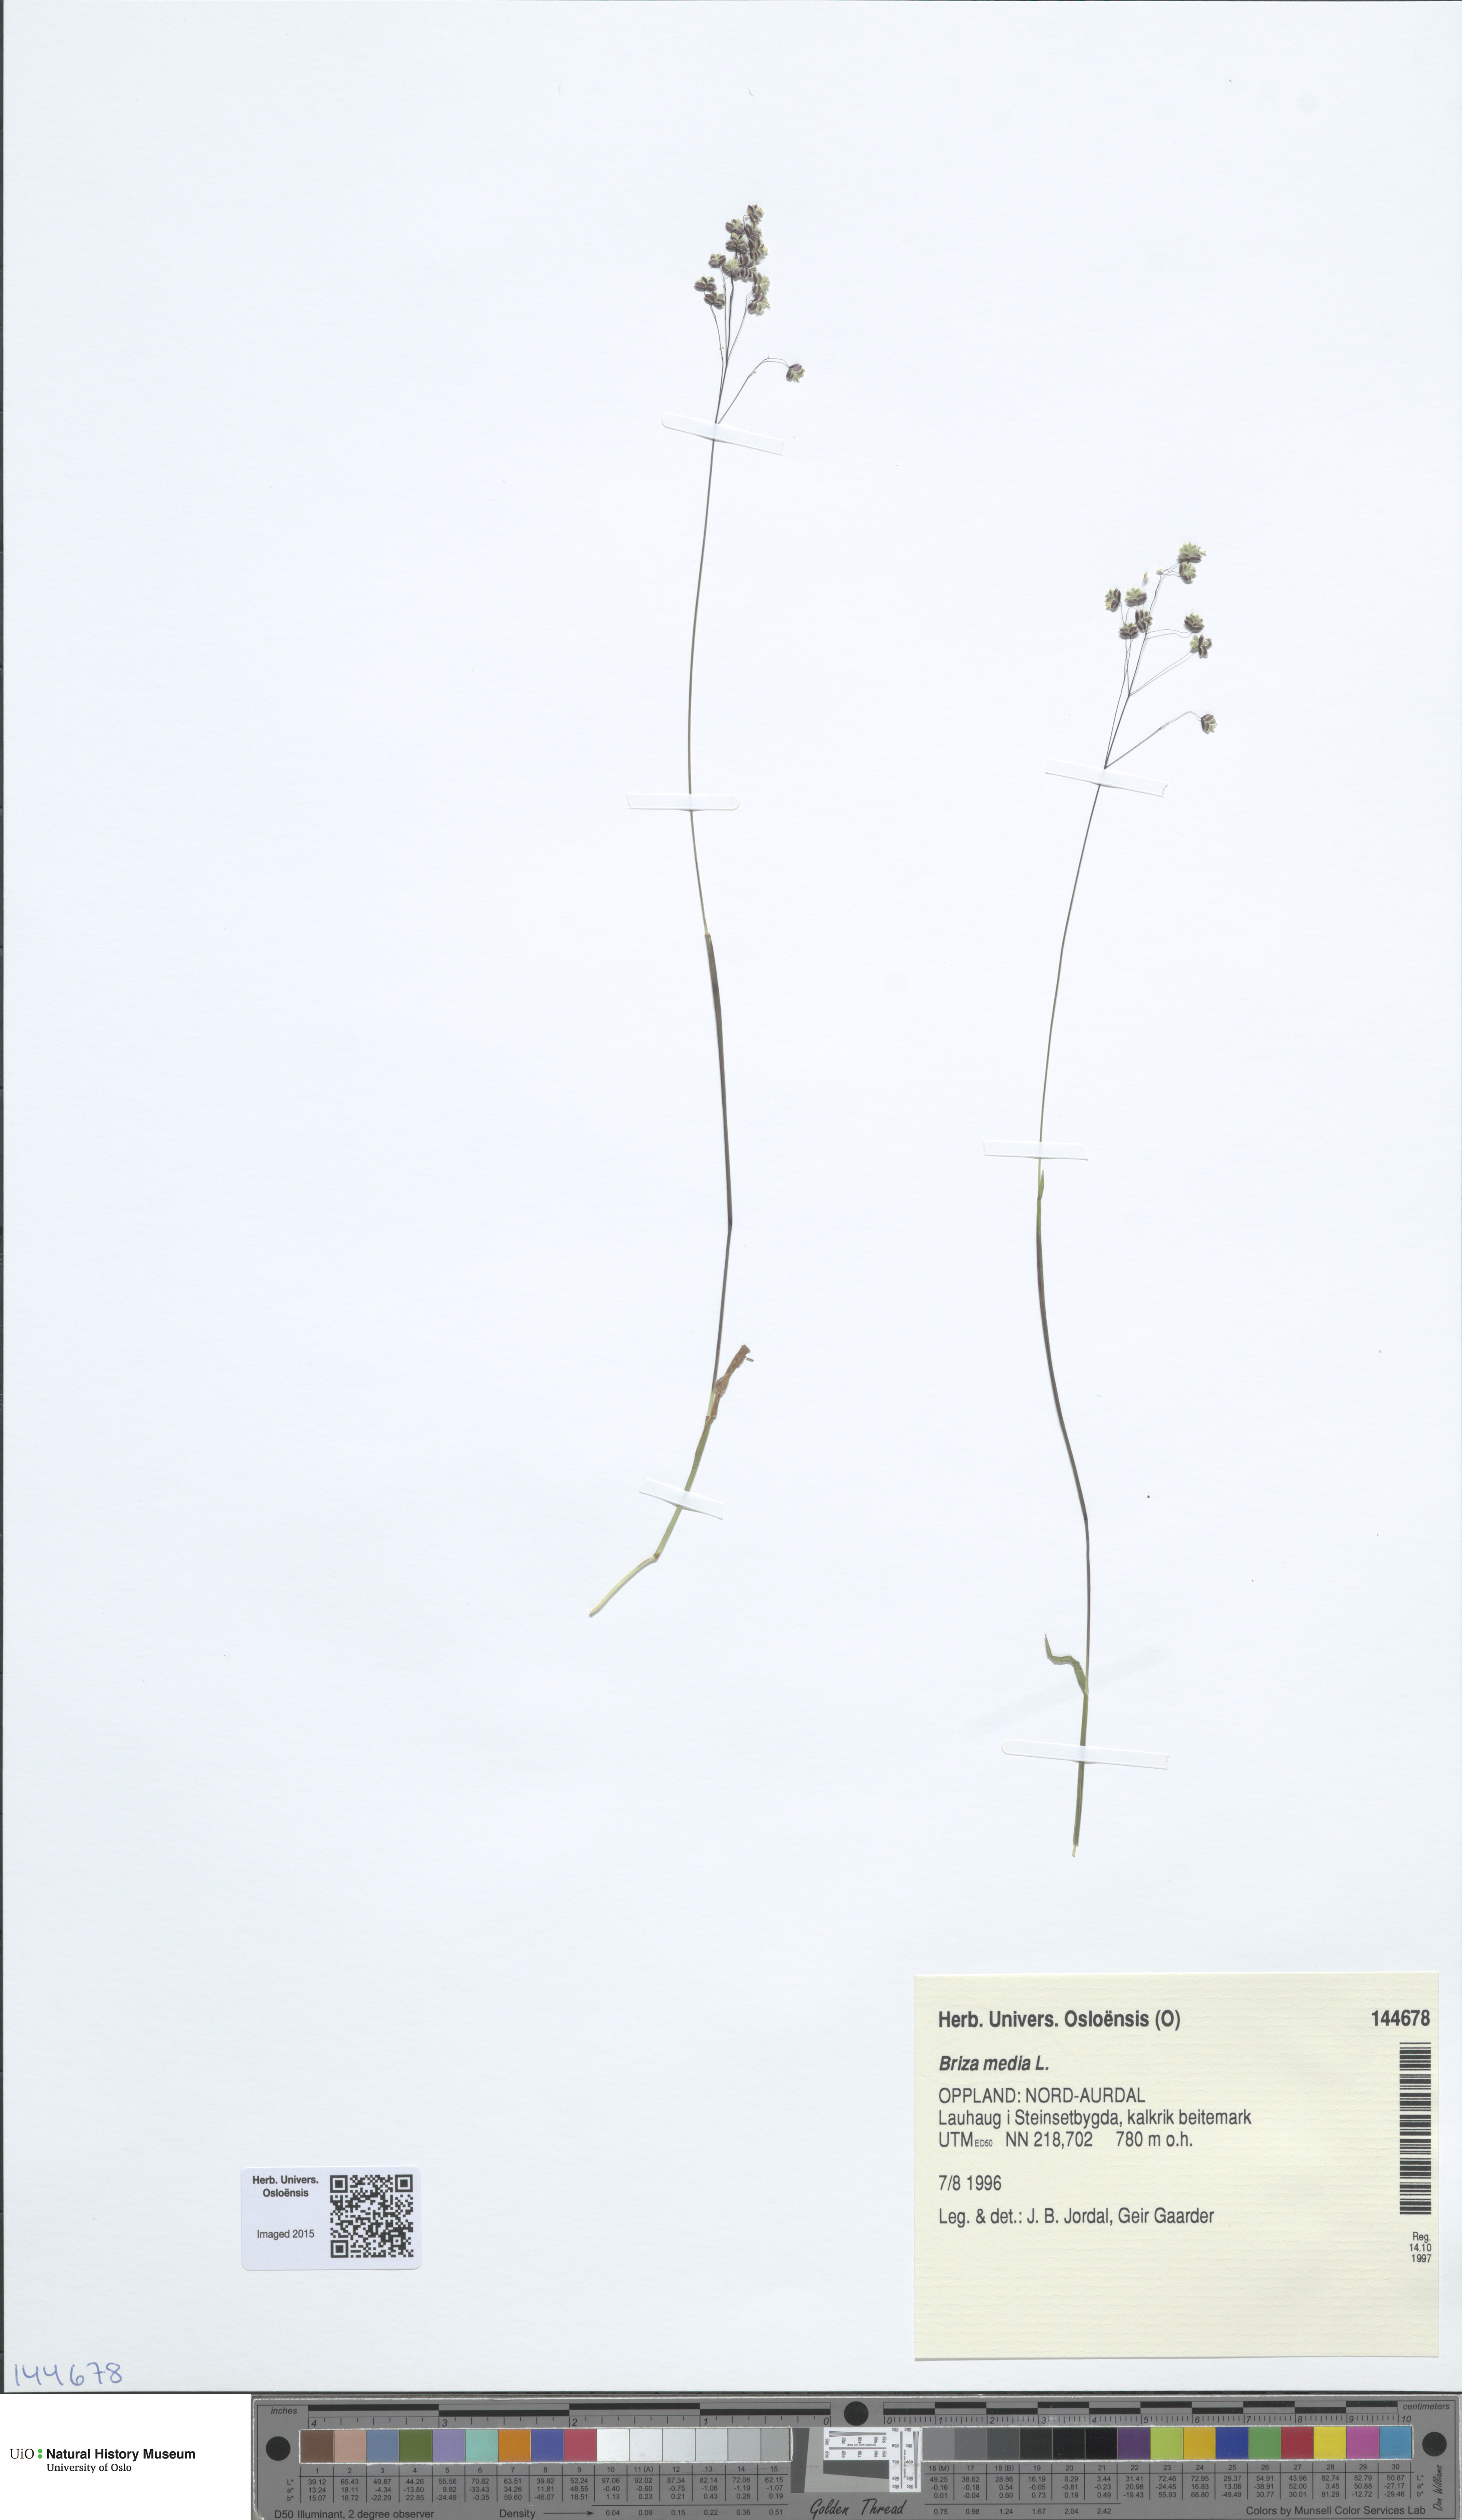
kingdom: Plantae
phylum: Tracheophyta
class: Liliopsida
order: Poales
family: Poaceae
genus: Briza
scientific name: Briza media
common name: Quaking grass
